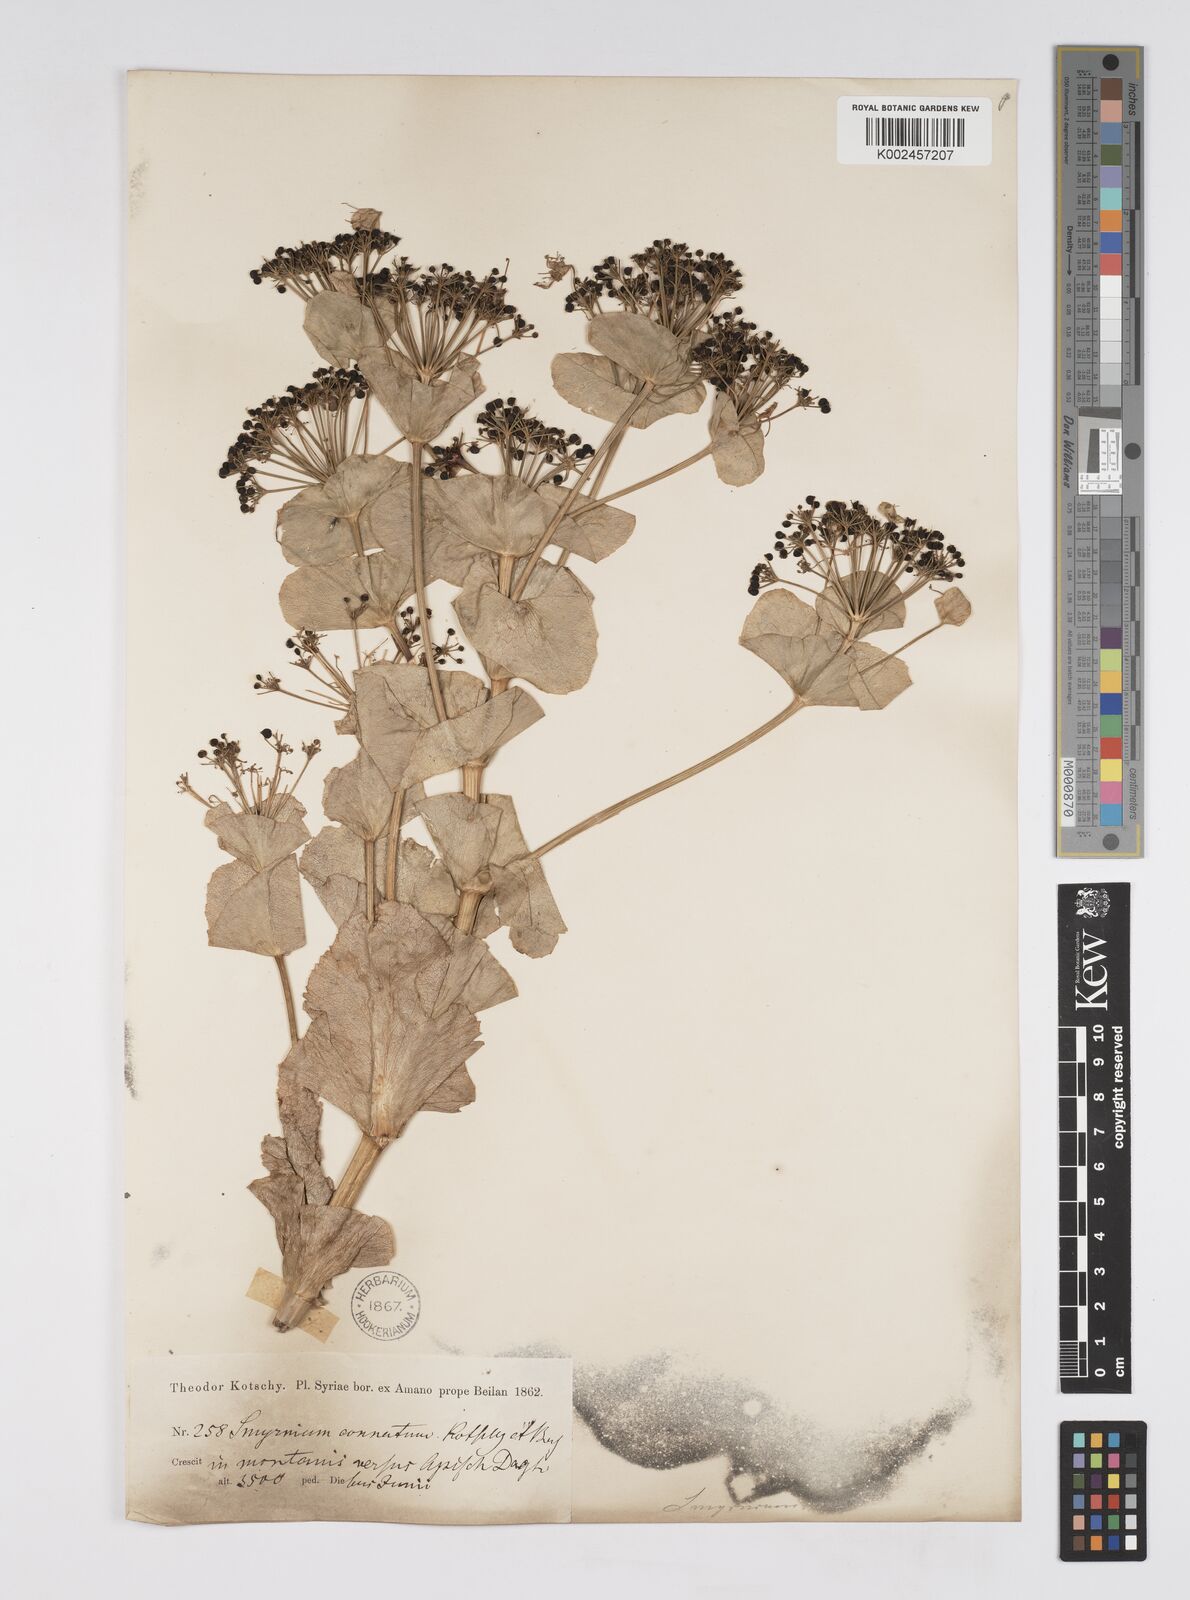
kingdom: Plantae
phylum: Tracheophyta
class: Magnoliopsida
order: Apiales
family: Apiaceae
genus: Smyrnium
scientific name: Smyrnium connatum
